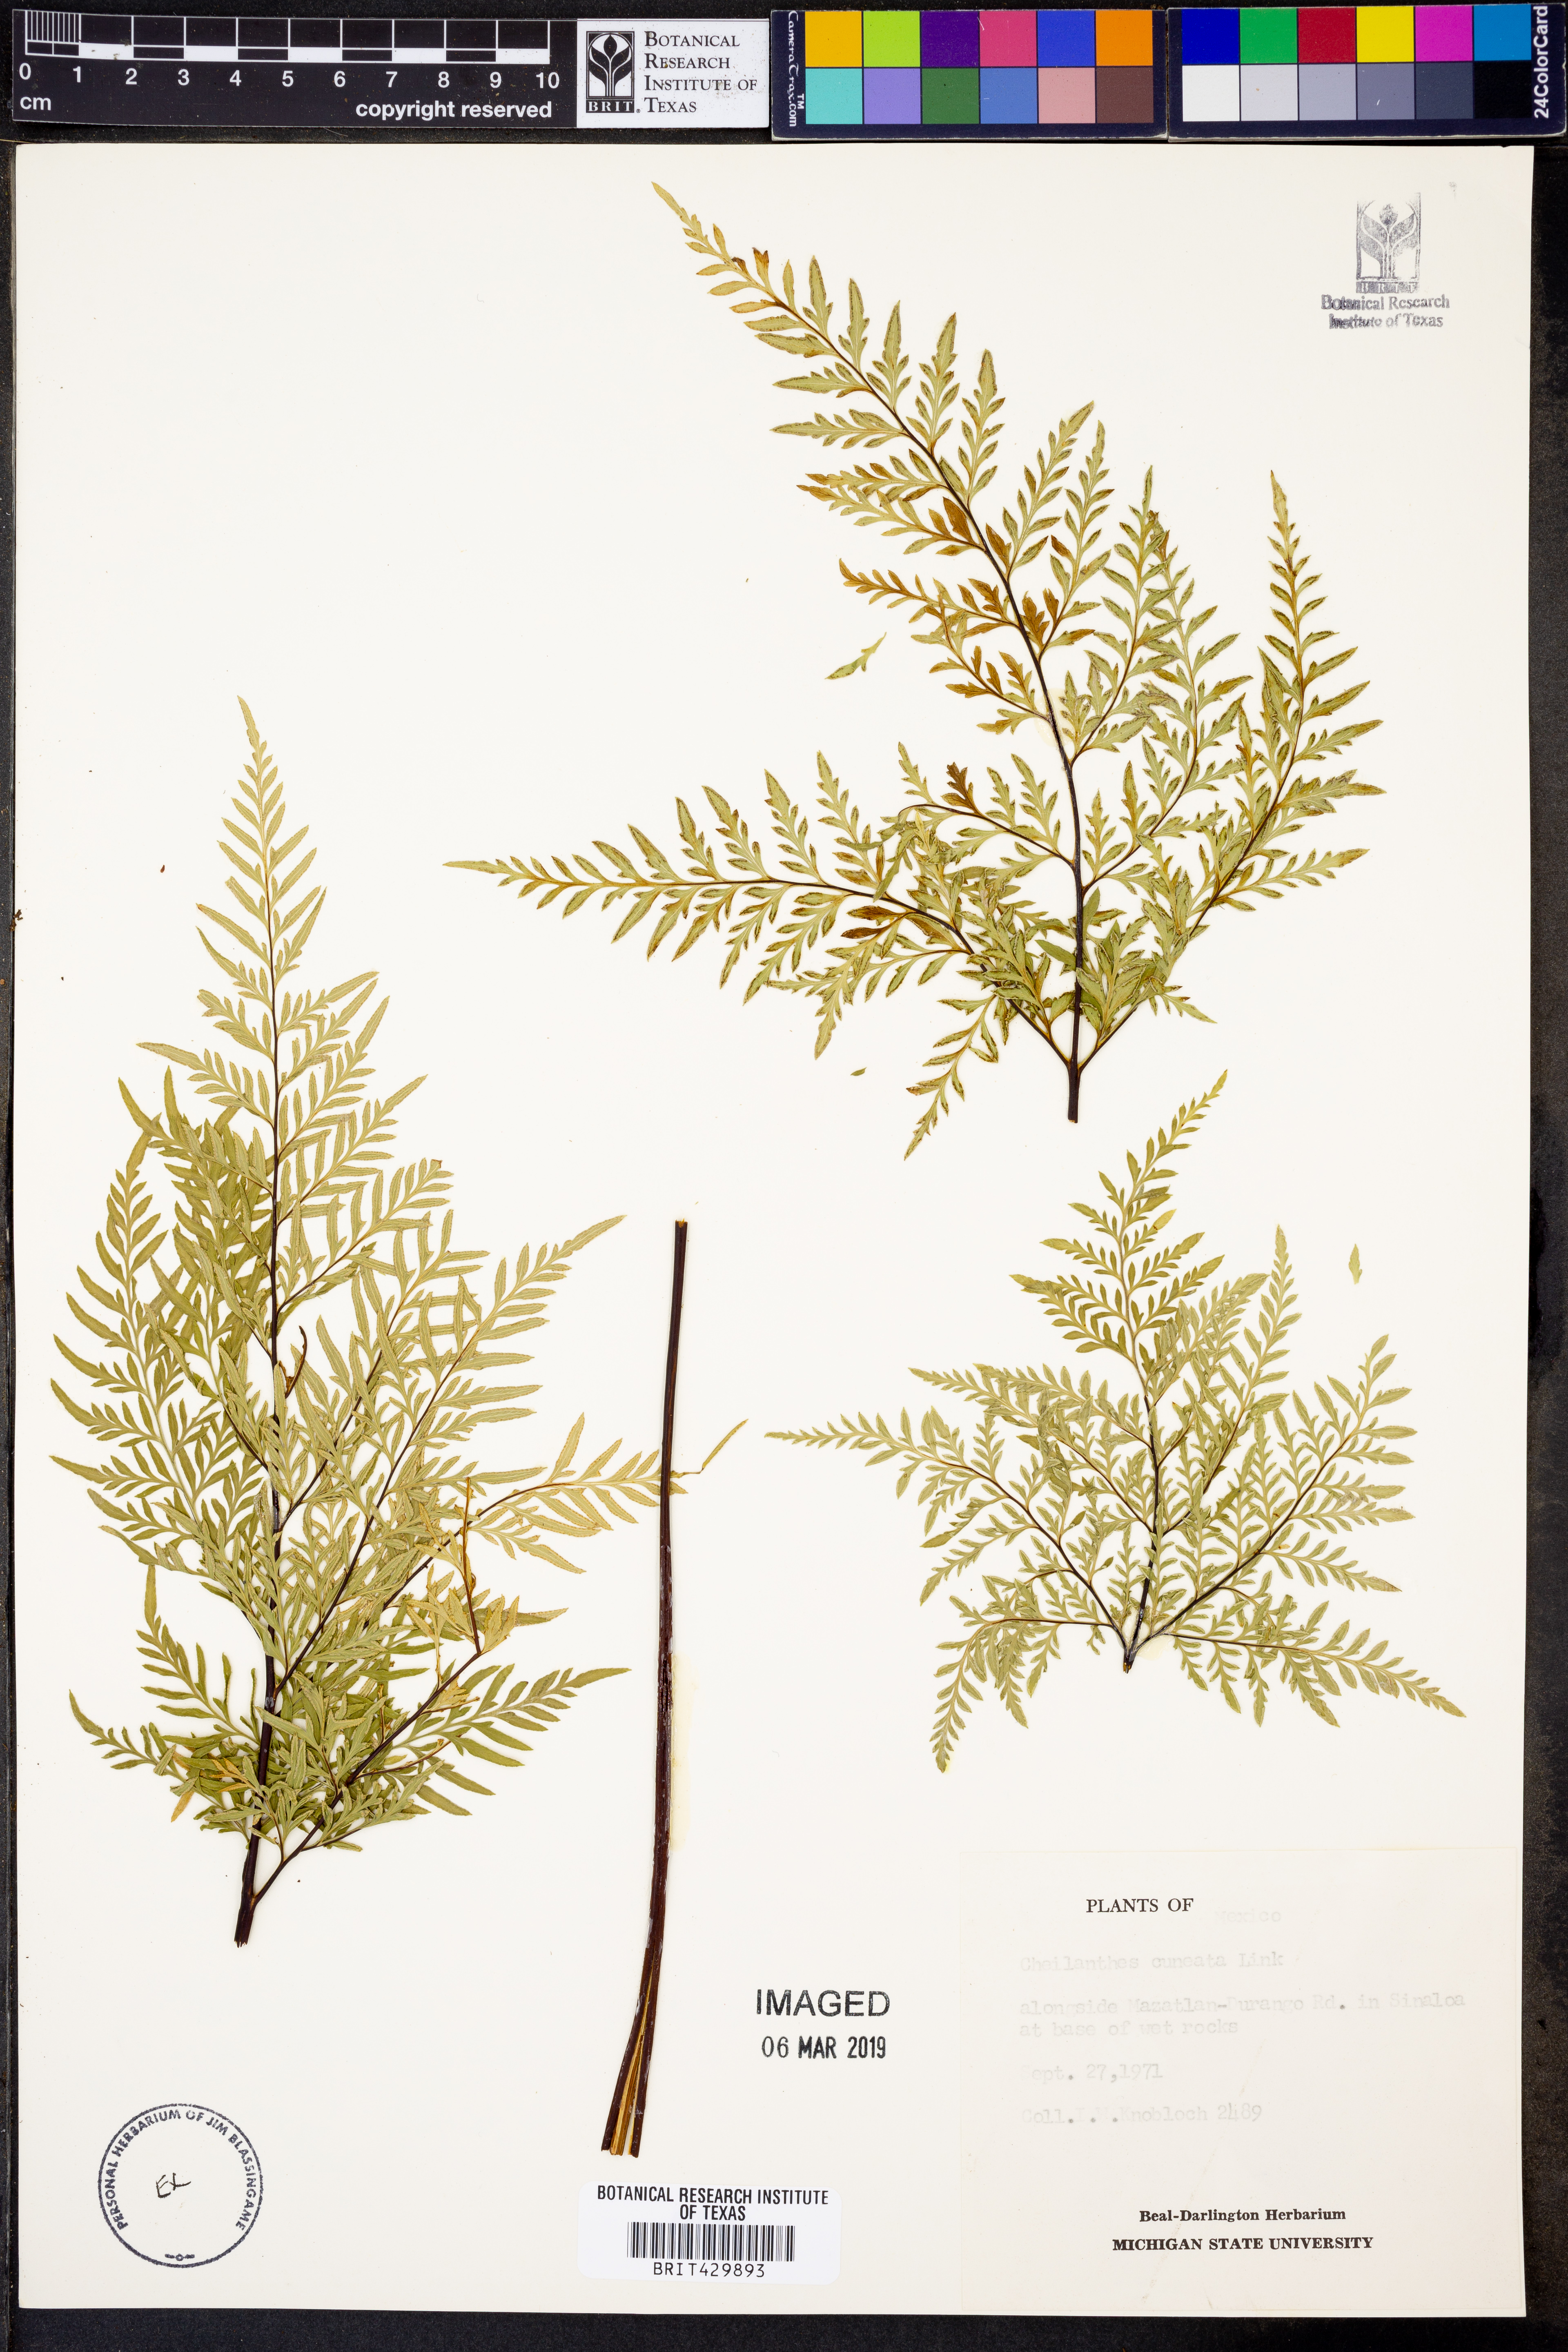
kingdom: Plantae
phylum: Tracheophyta
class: Polypodiopsida
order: Polypodiales
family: Pteridaceae
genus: Gaga
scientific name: Gaga cuneata
